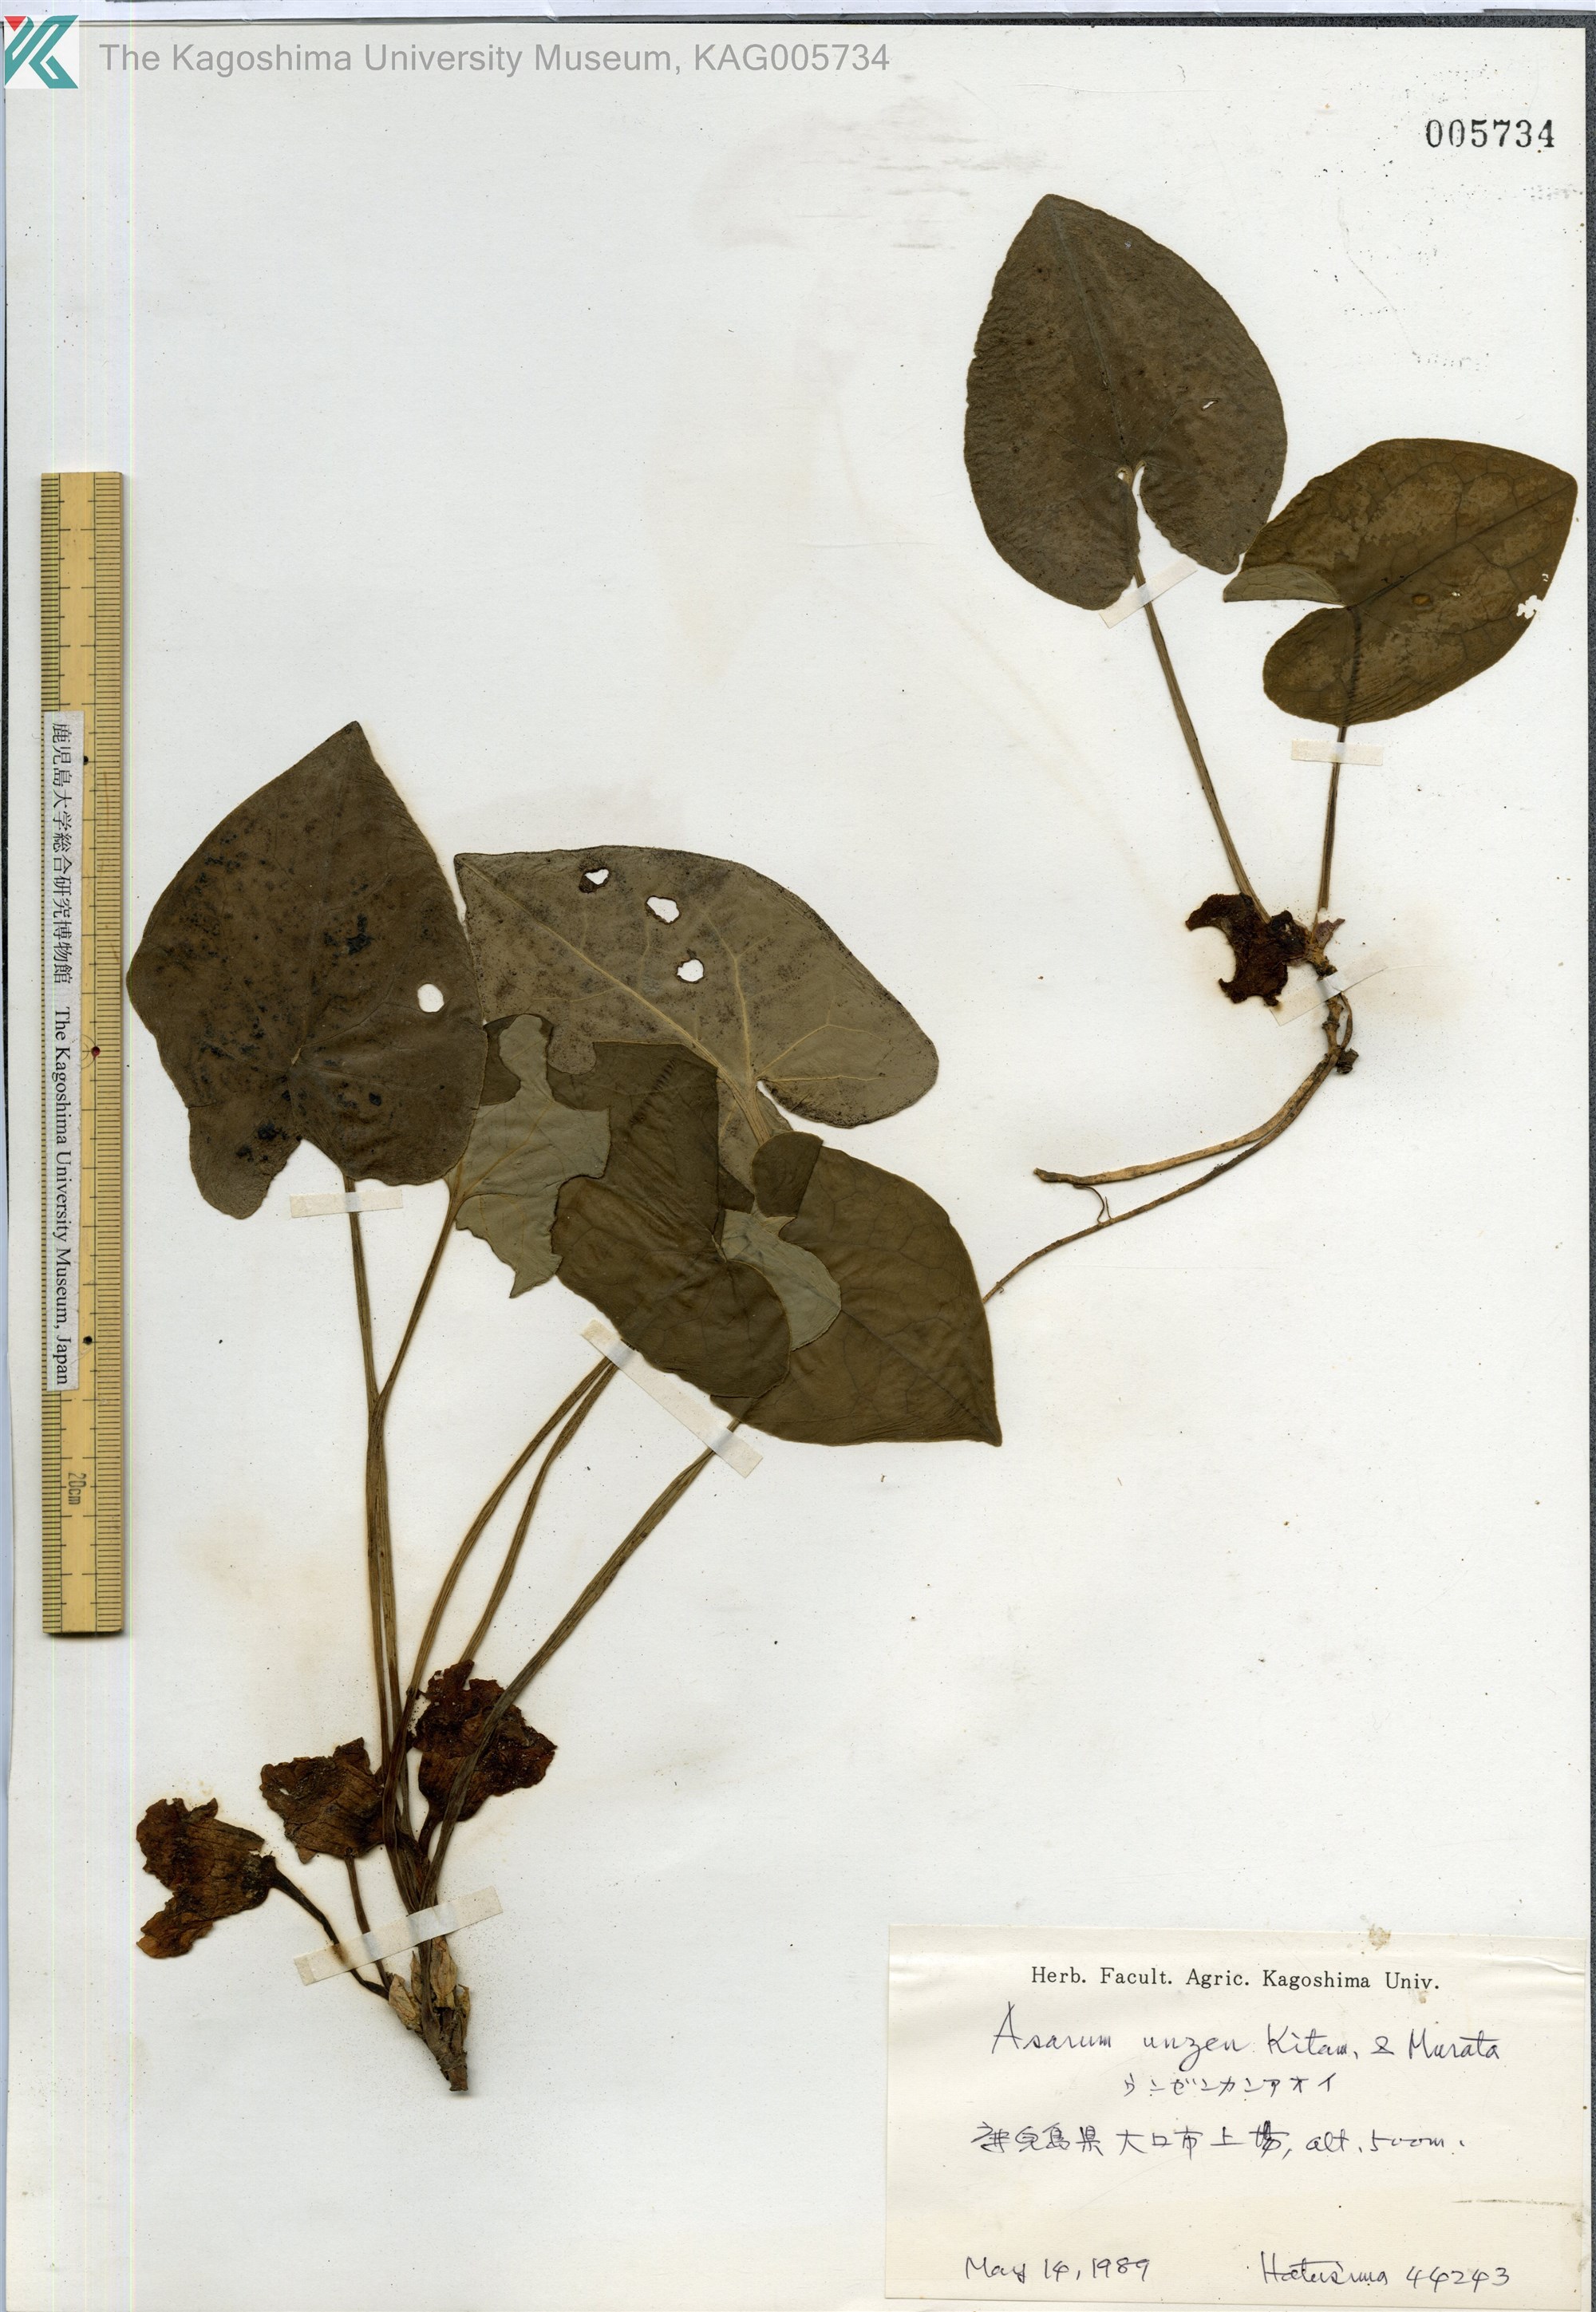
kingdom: Plantae
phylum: Tracheophyta
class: Magnoliopsida
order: Piperales
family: Aristolochiaceae
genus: Asarum
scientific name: Asarum unzen
